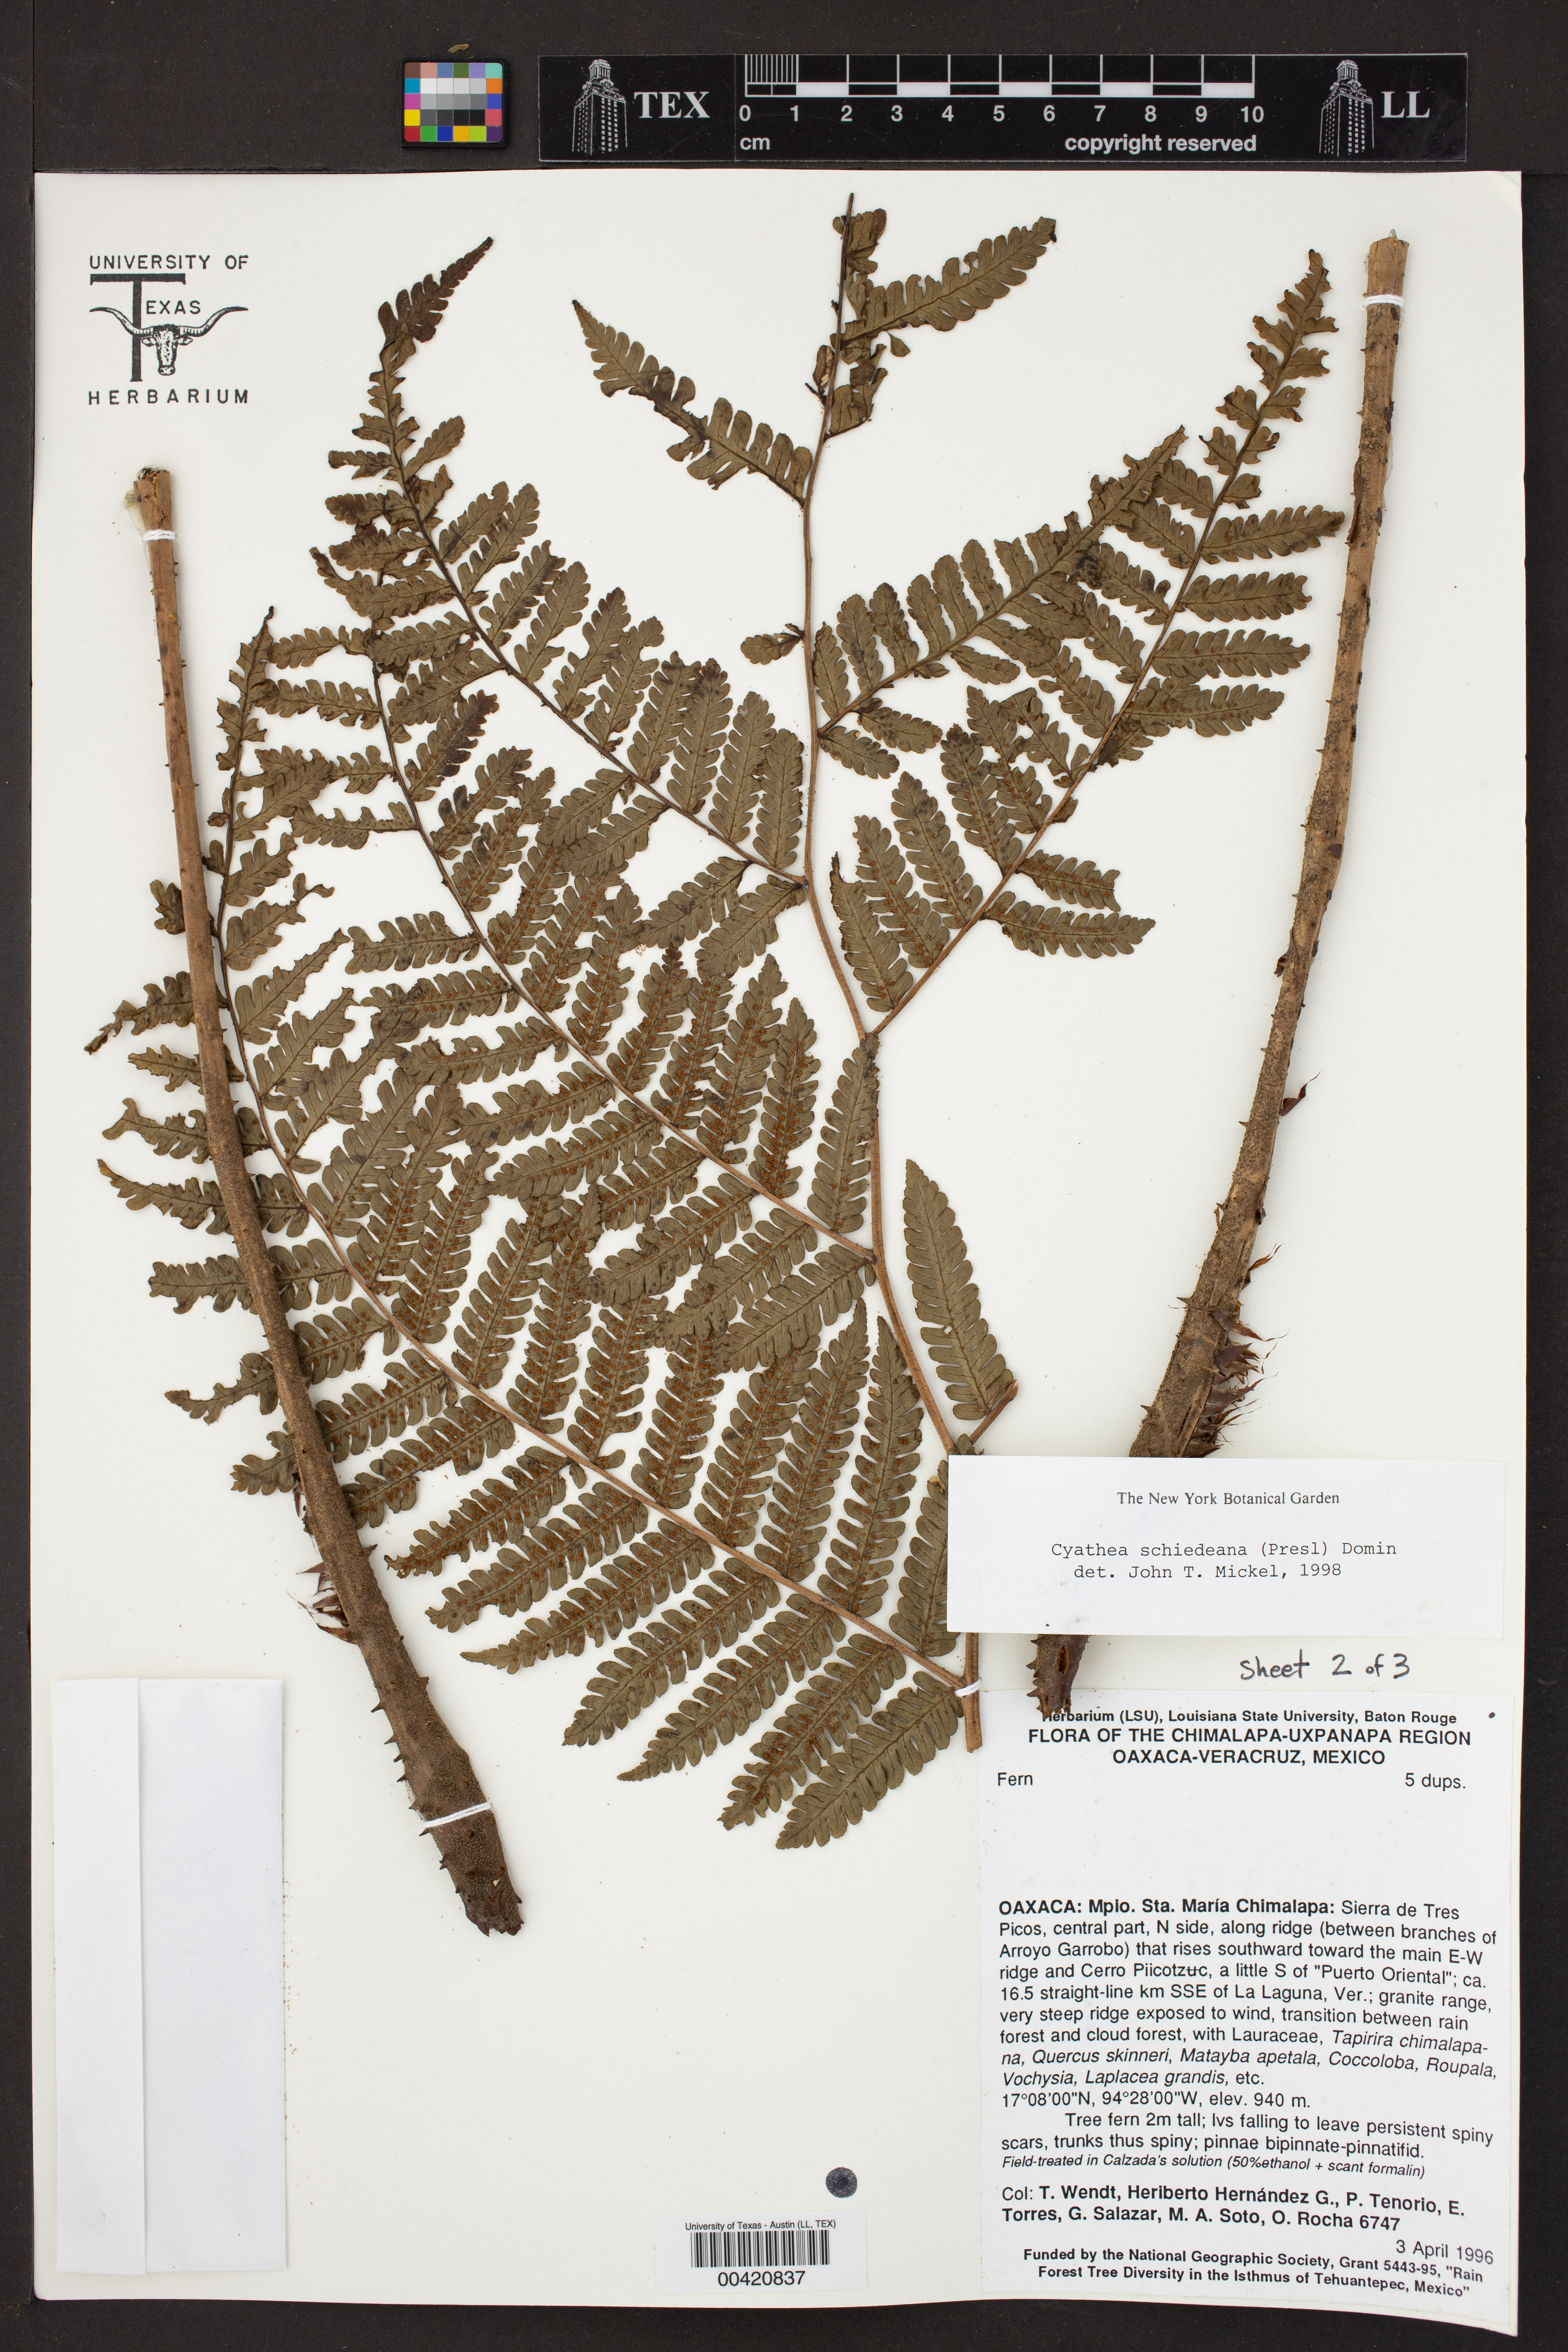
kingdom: Plantae
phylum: Tracheophyta
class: Polypodiopsida
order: Cyatheales
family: Cyatheaceae
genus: Cyathea
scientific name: Cyathea schiedeana
